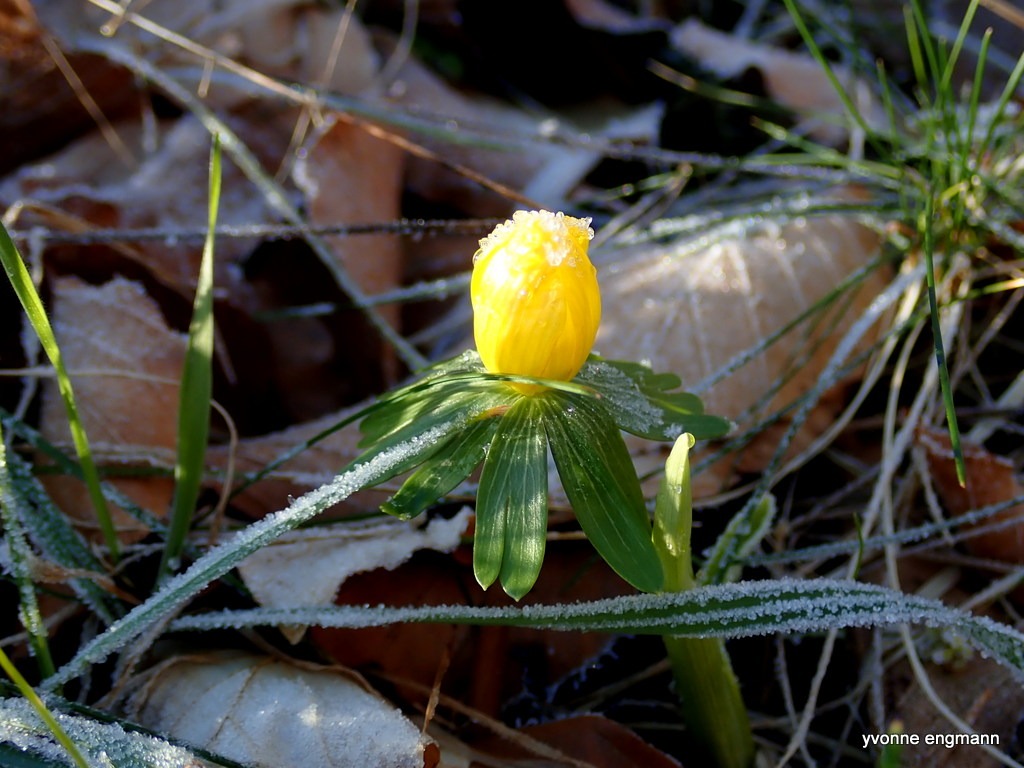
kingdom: Plantae
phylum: Tracheophyta
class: Magnoliopsida
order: Ranunculales
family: Ranunculaceae
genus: Eranthis
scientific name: Eranthis hyemalis
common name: Erantis
